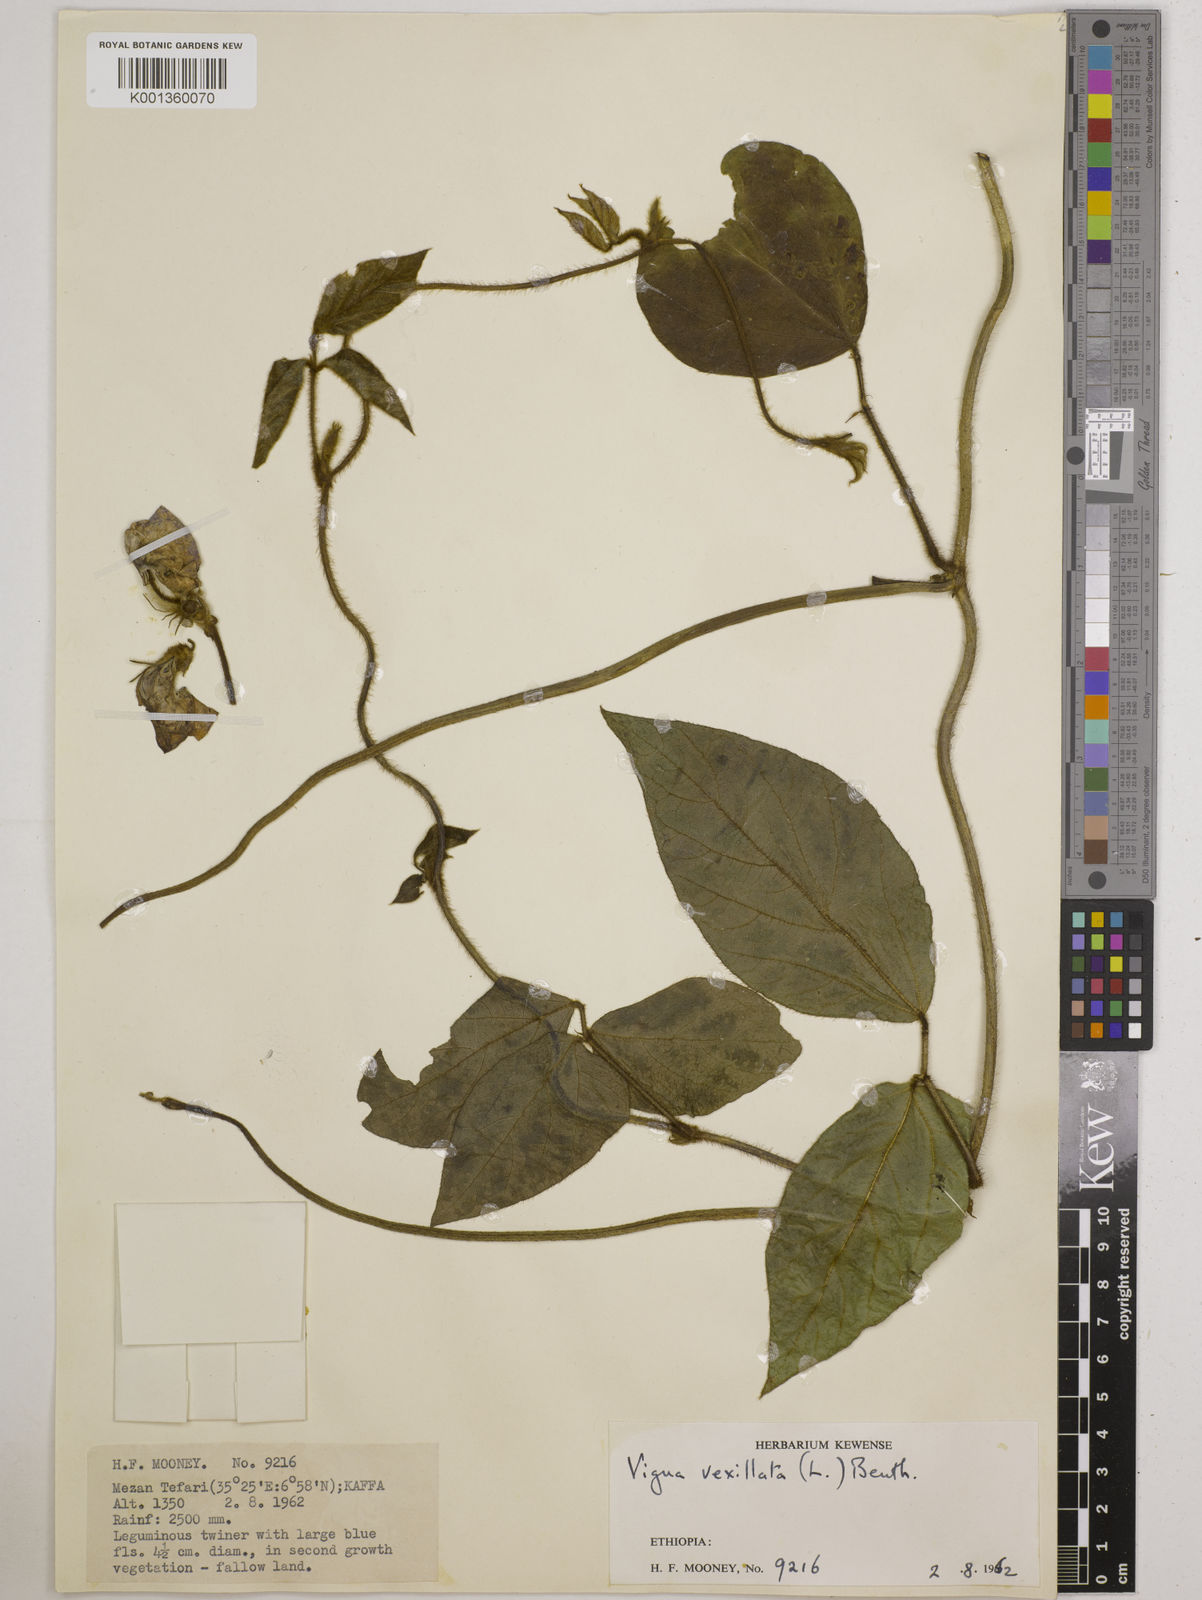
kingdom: Plantae
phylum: Tracheophyta
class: Magnoliopsida
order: Fabales
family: Fabaceae
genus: Vigna
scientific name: Vigna vexillata
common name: Zombi pea
